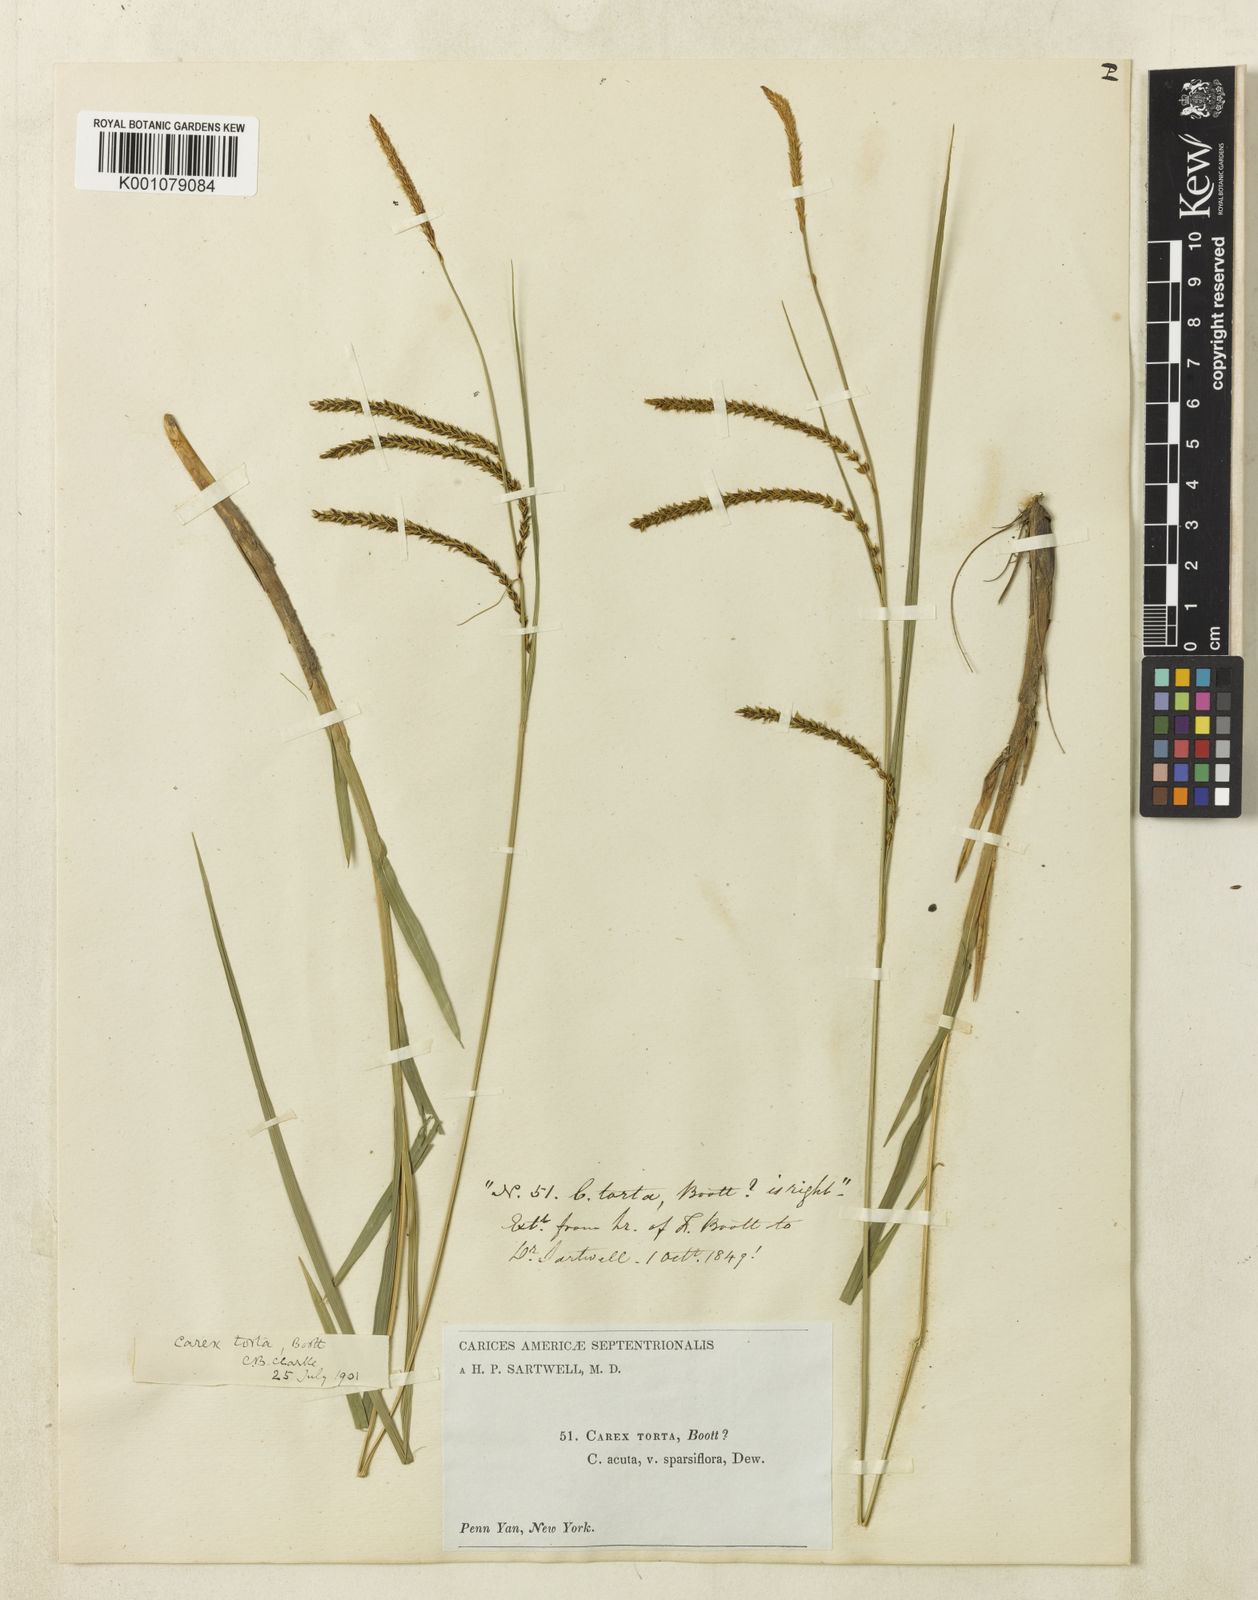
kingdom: Plantae
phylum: Tracheophyta
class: Liliopsida
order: Poales
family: Cyperaceae
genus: Carex
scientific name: Carex torta
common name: Twisted sedge
